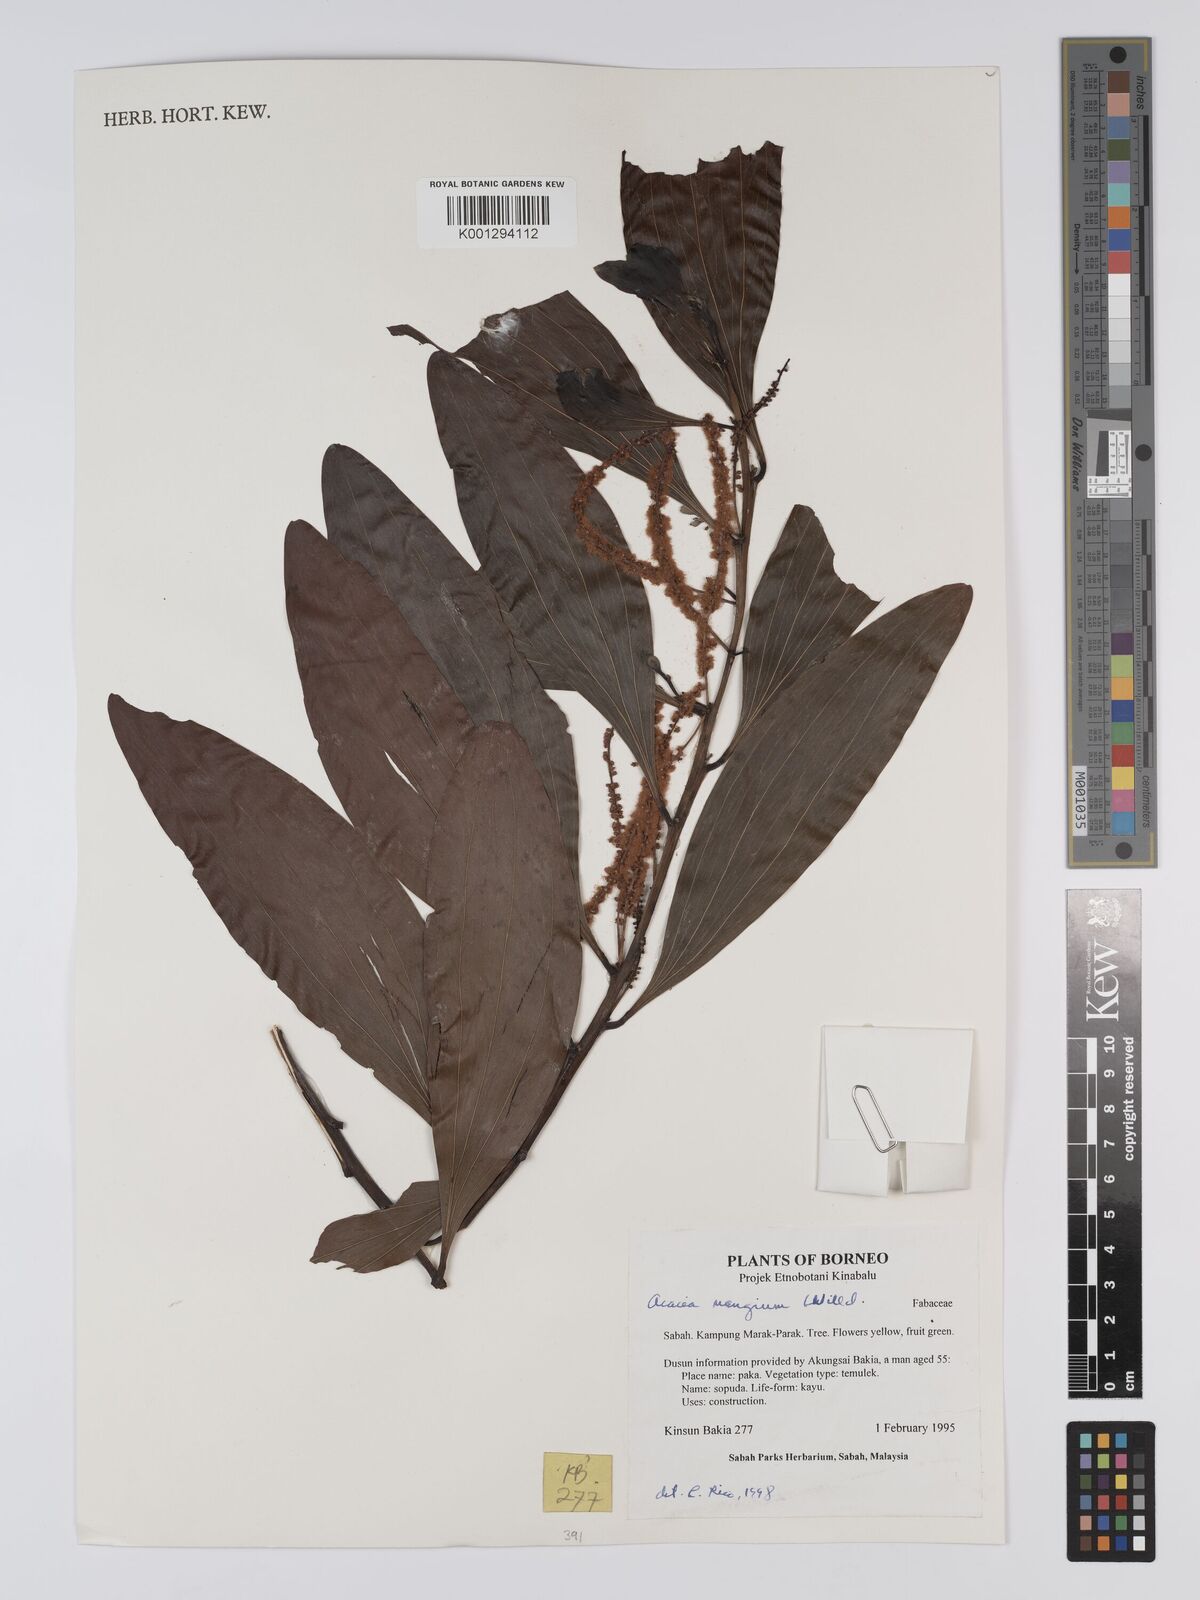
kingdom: Plantae
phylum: Tracheophyta
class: Magnoliopsida
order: Fabales
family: Fabaceae
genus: Acacia
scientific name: Acacia mangium
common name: Black wattle
